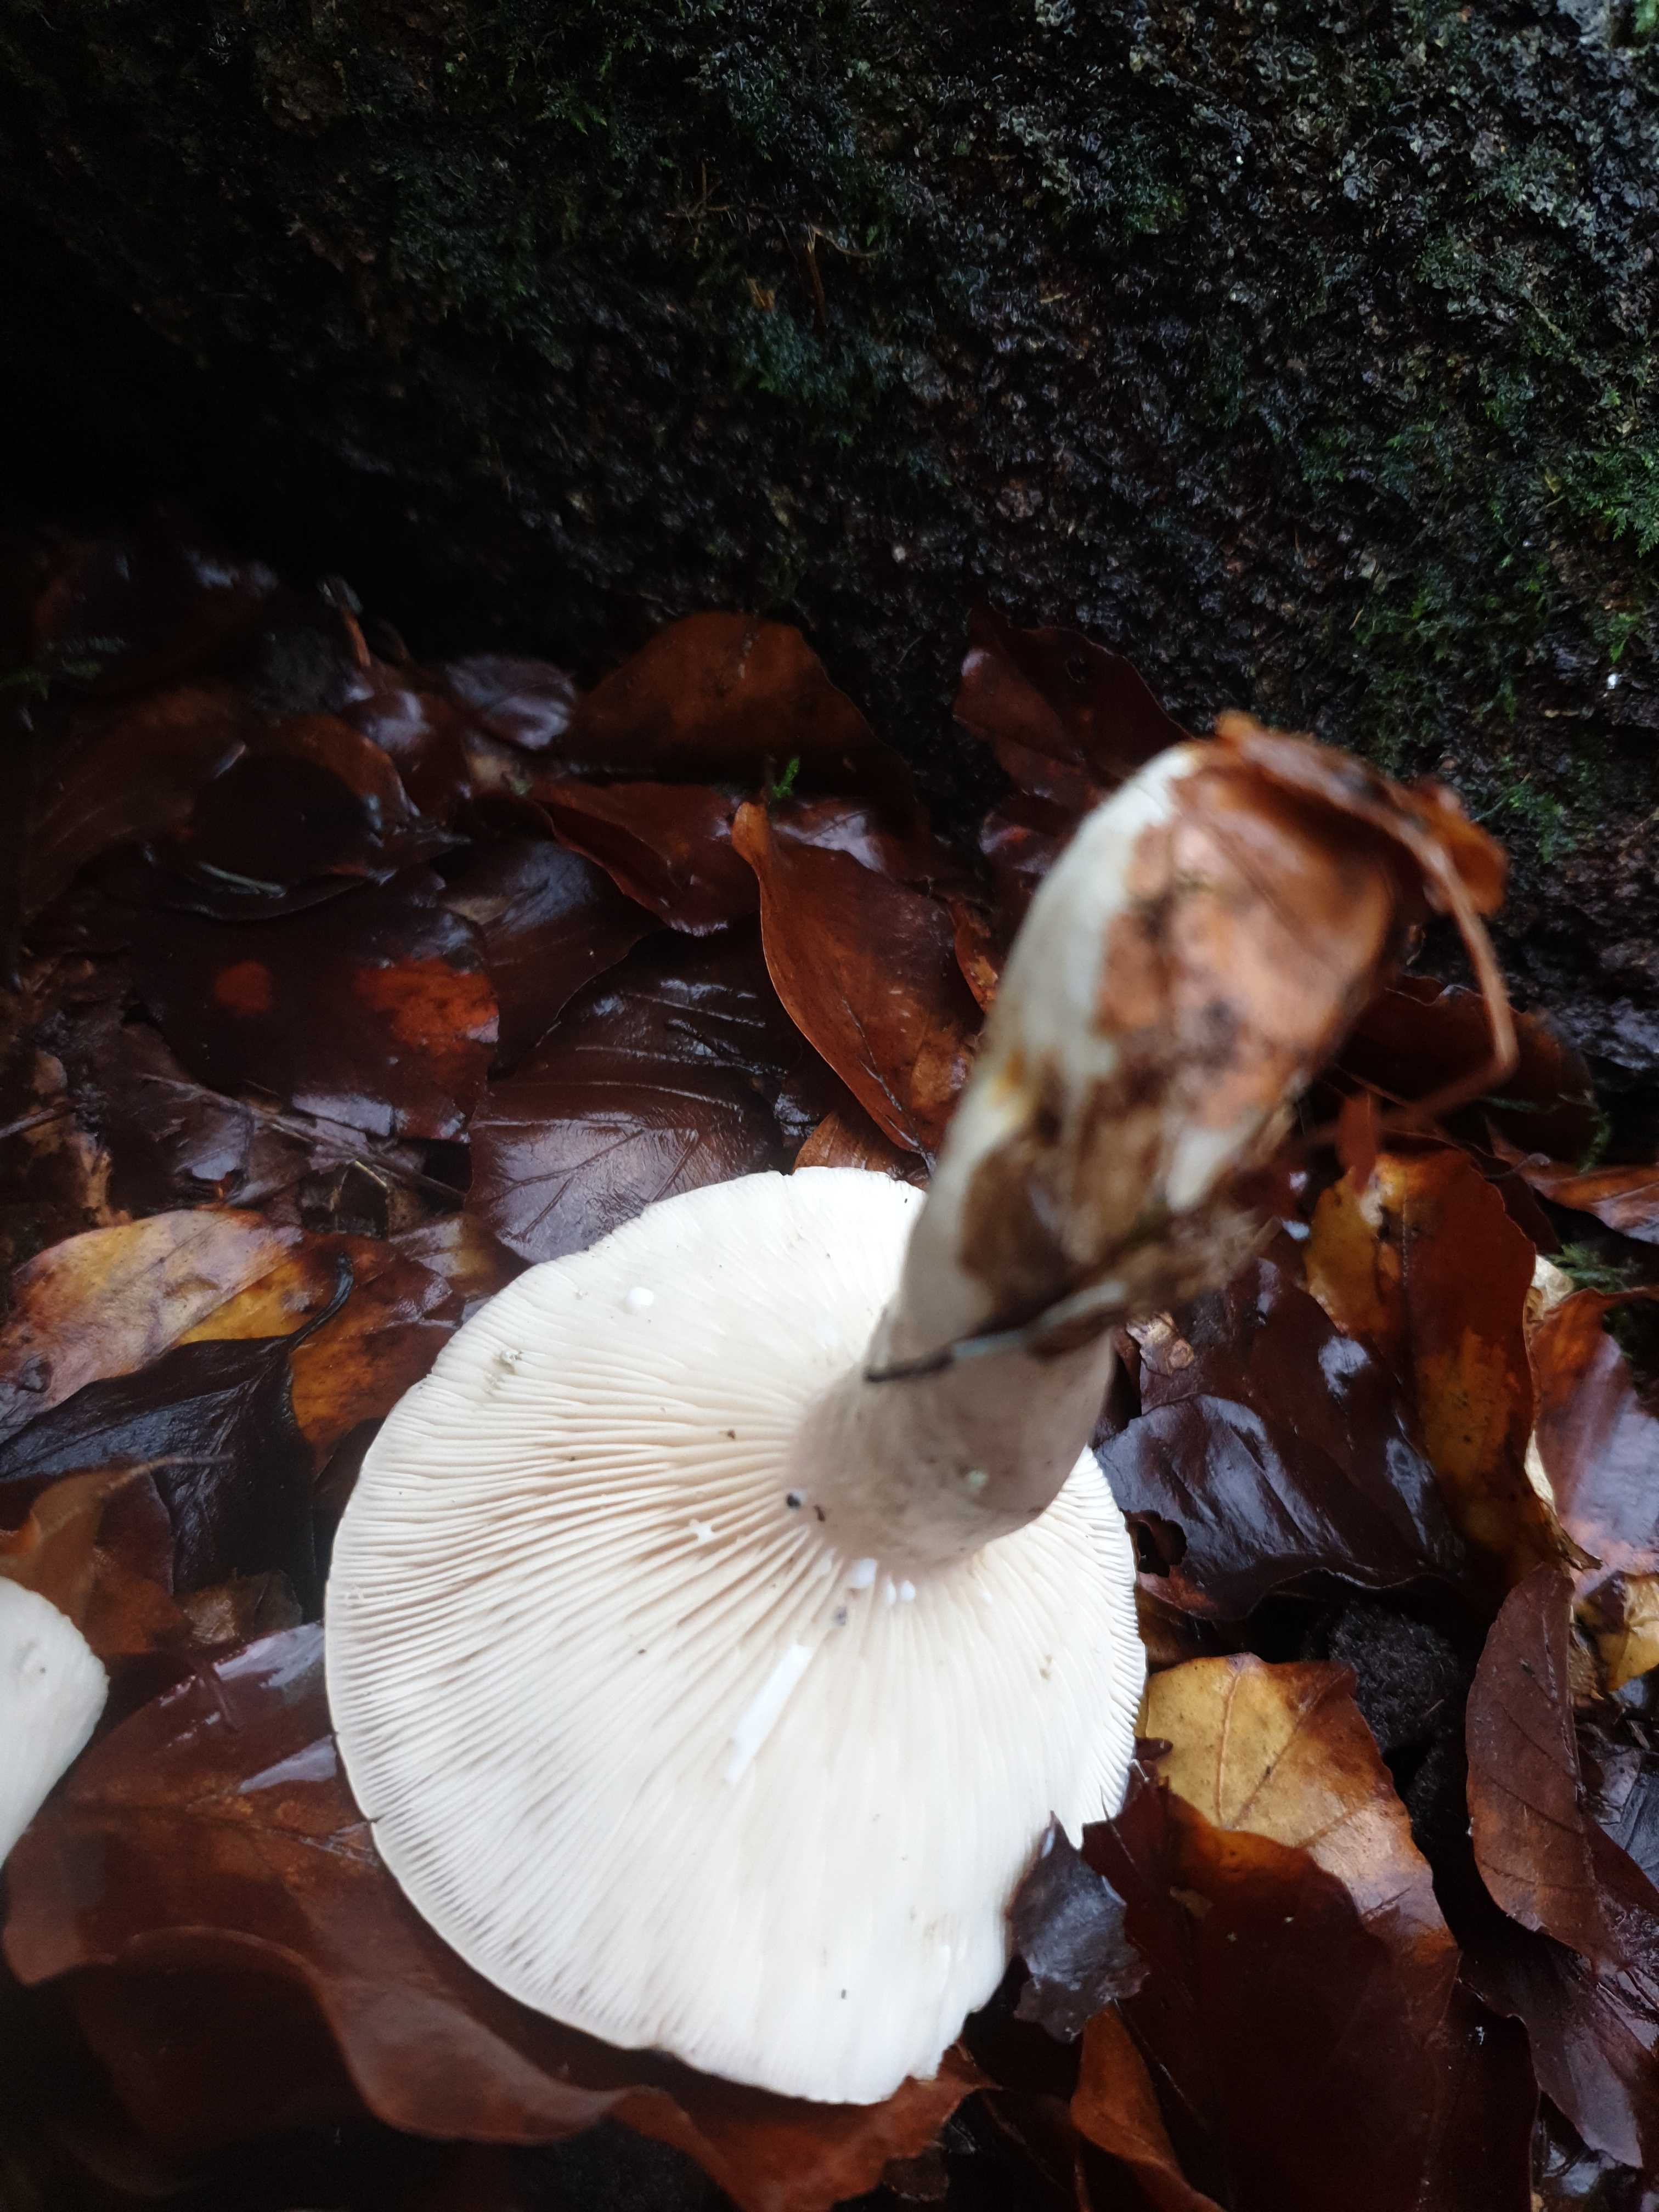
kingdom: Fungi
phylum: Basidiomycota
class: Agaricomycetes
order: Russulales
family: Russulaceae
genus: Lactarius
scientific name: Lactarius blennius
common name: dråbeplettet mælkehat
